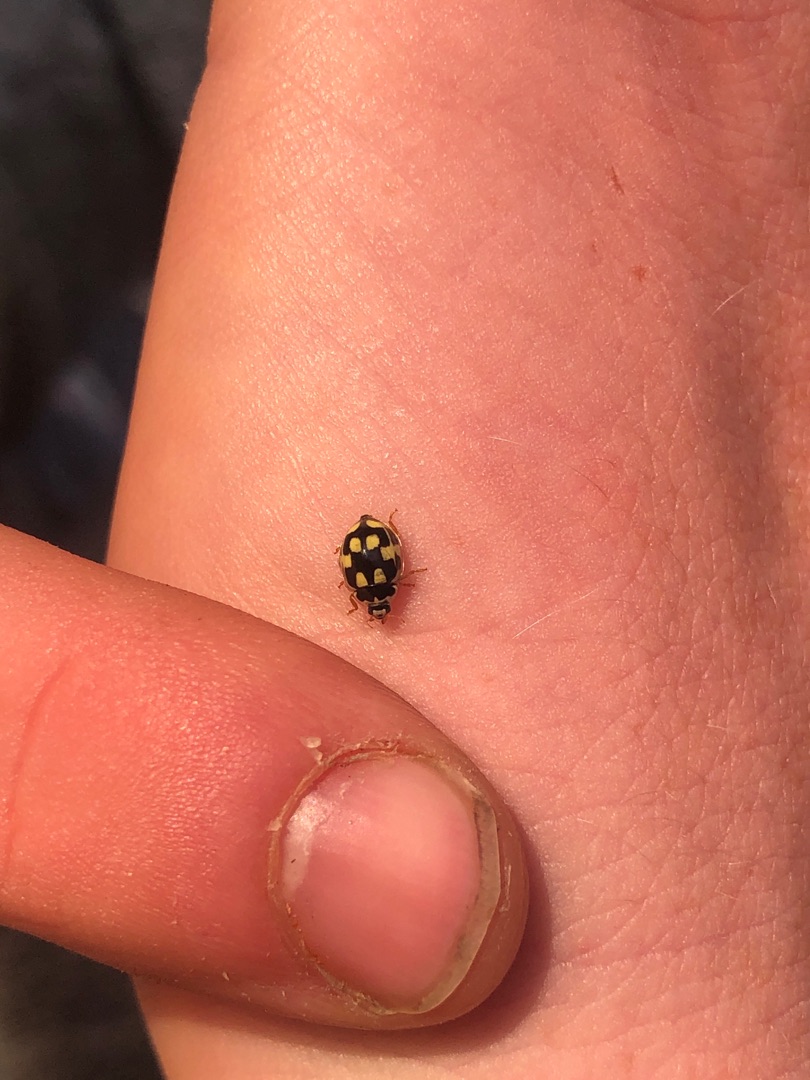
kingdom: Animalia
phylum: Arthropoda
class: Insecta
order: Coleoptera
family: Coccinellidae
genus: Propylaea
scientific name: Propylaea quatuordecimpunctata
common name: Skakbræt
